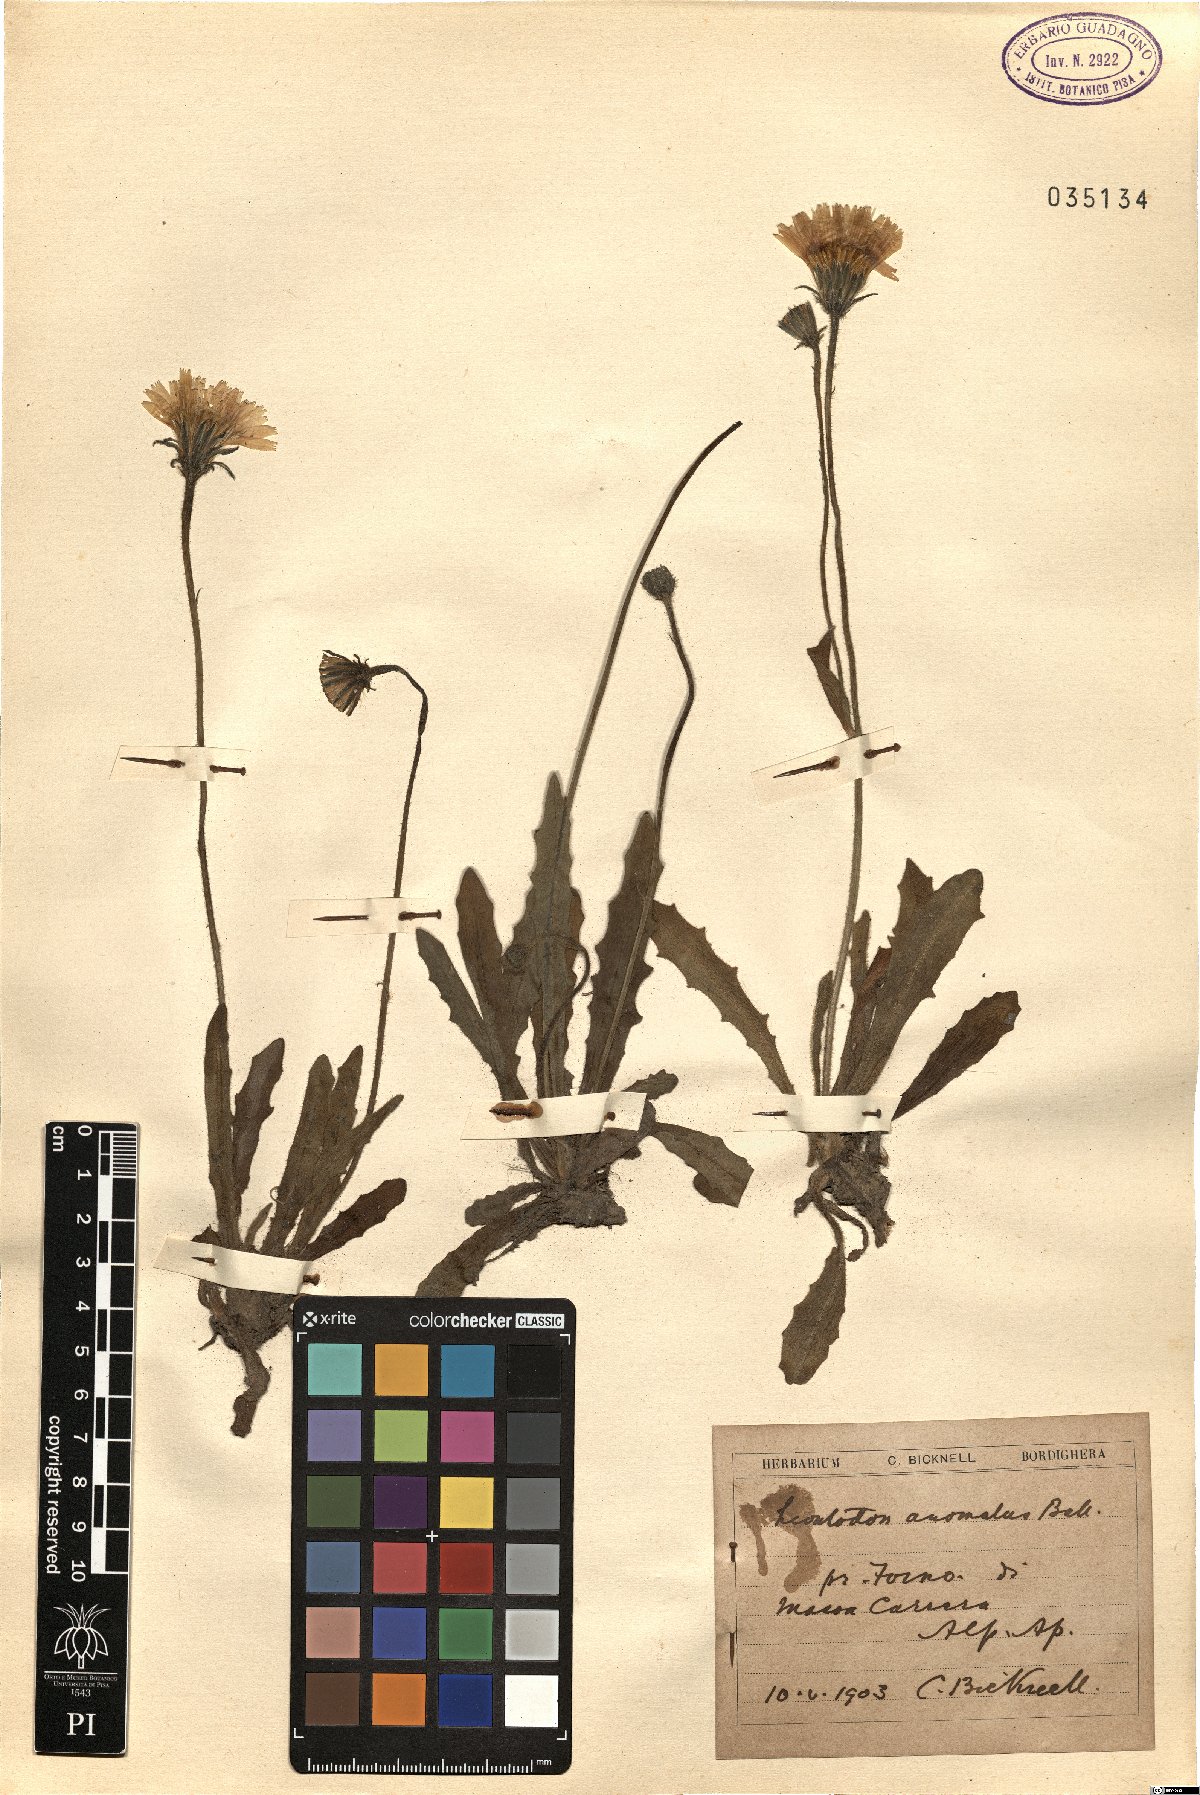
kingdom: Plantae
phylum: Tracheophyta
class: Magnoliopsida
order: Asterales
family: Asteraceae
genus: Leontodon
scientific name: Leontodon anomalus
